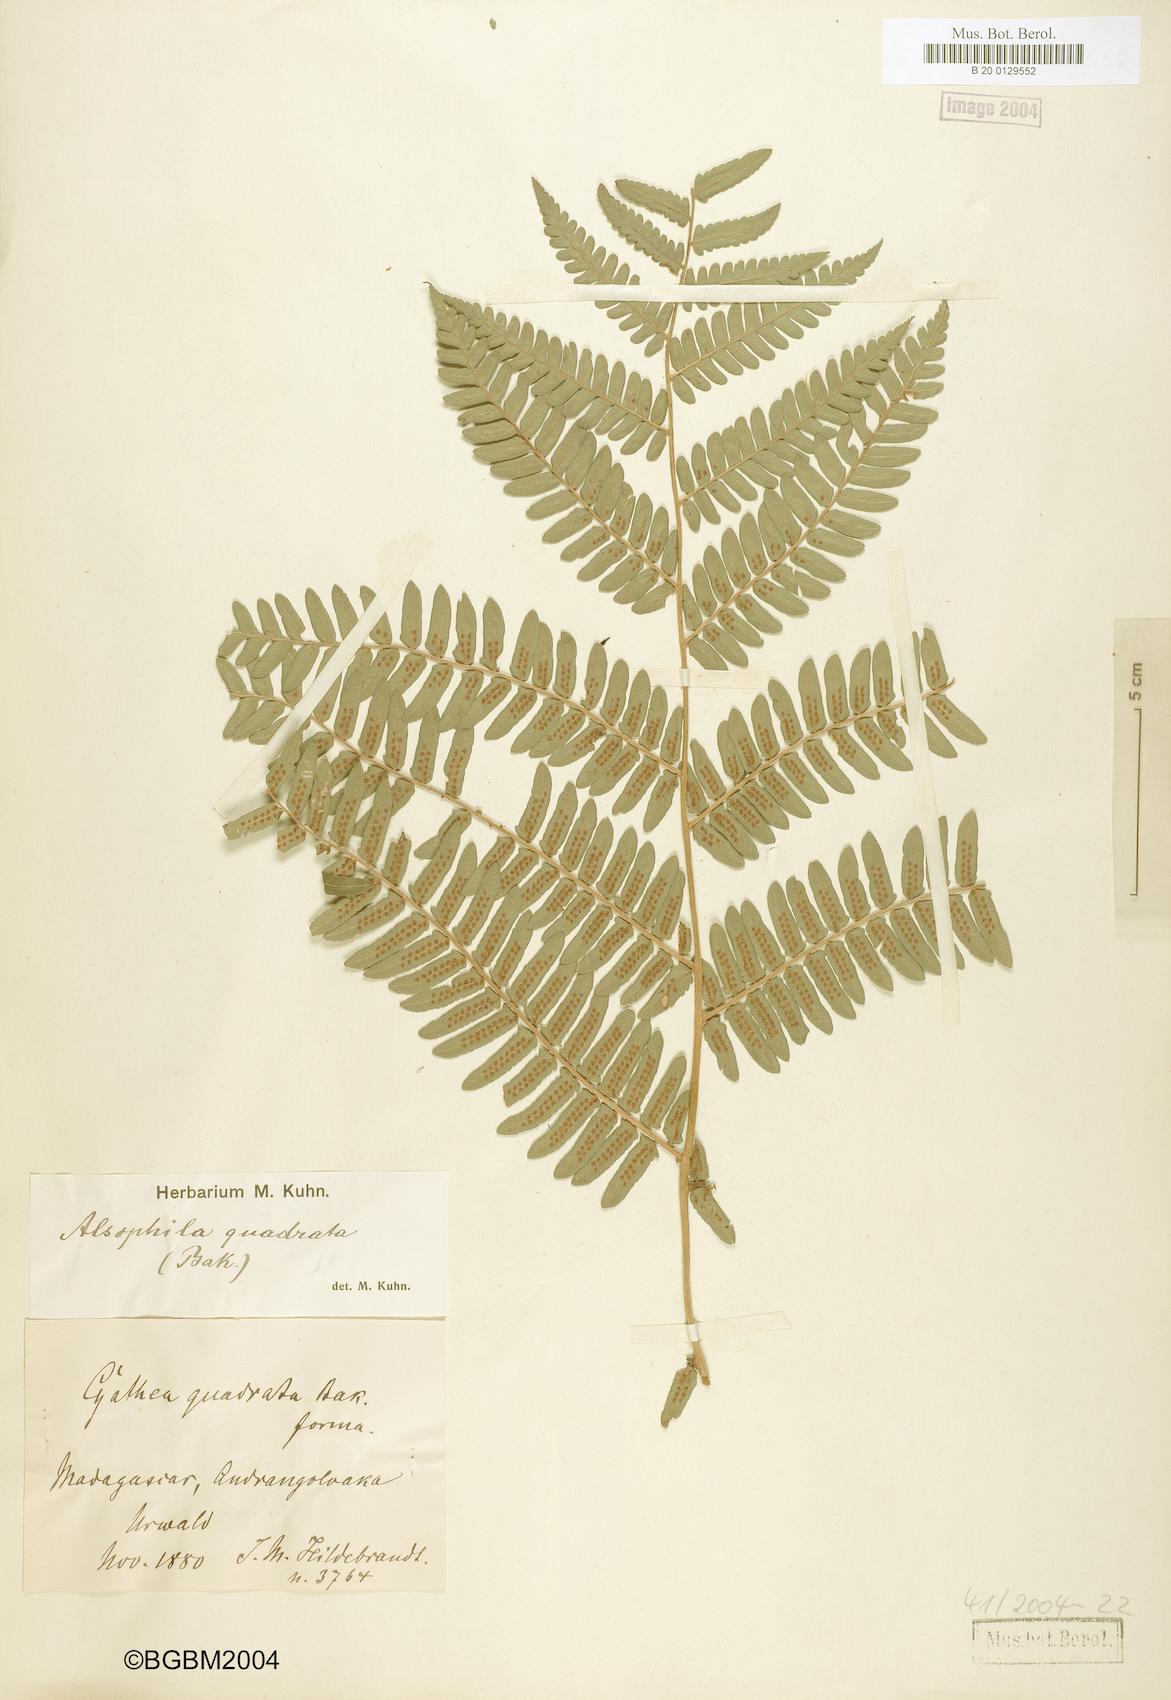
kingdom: Plantae
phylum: Tracheophyta
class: Polypodiopsida
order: Cyatheales
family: Cyatheaceae
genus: Alsophila
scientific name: Alsophila quadrata
